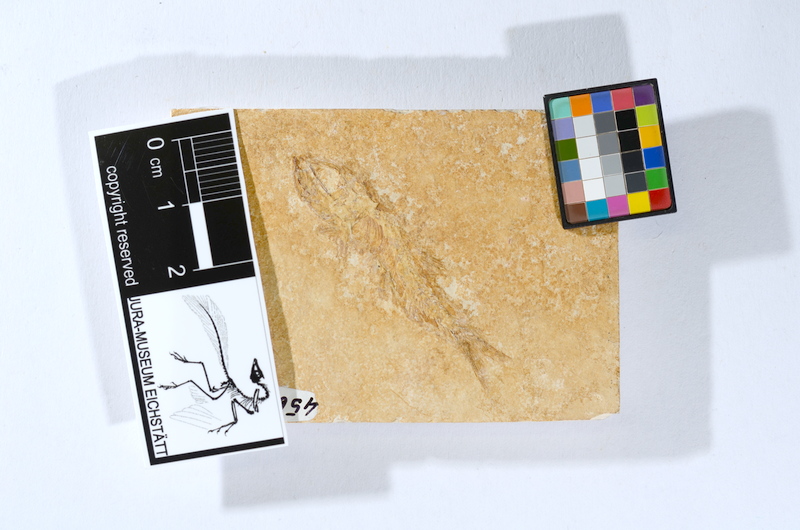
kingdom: Animalia
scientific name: Animalia
